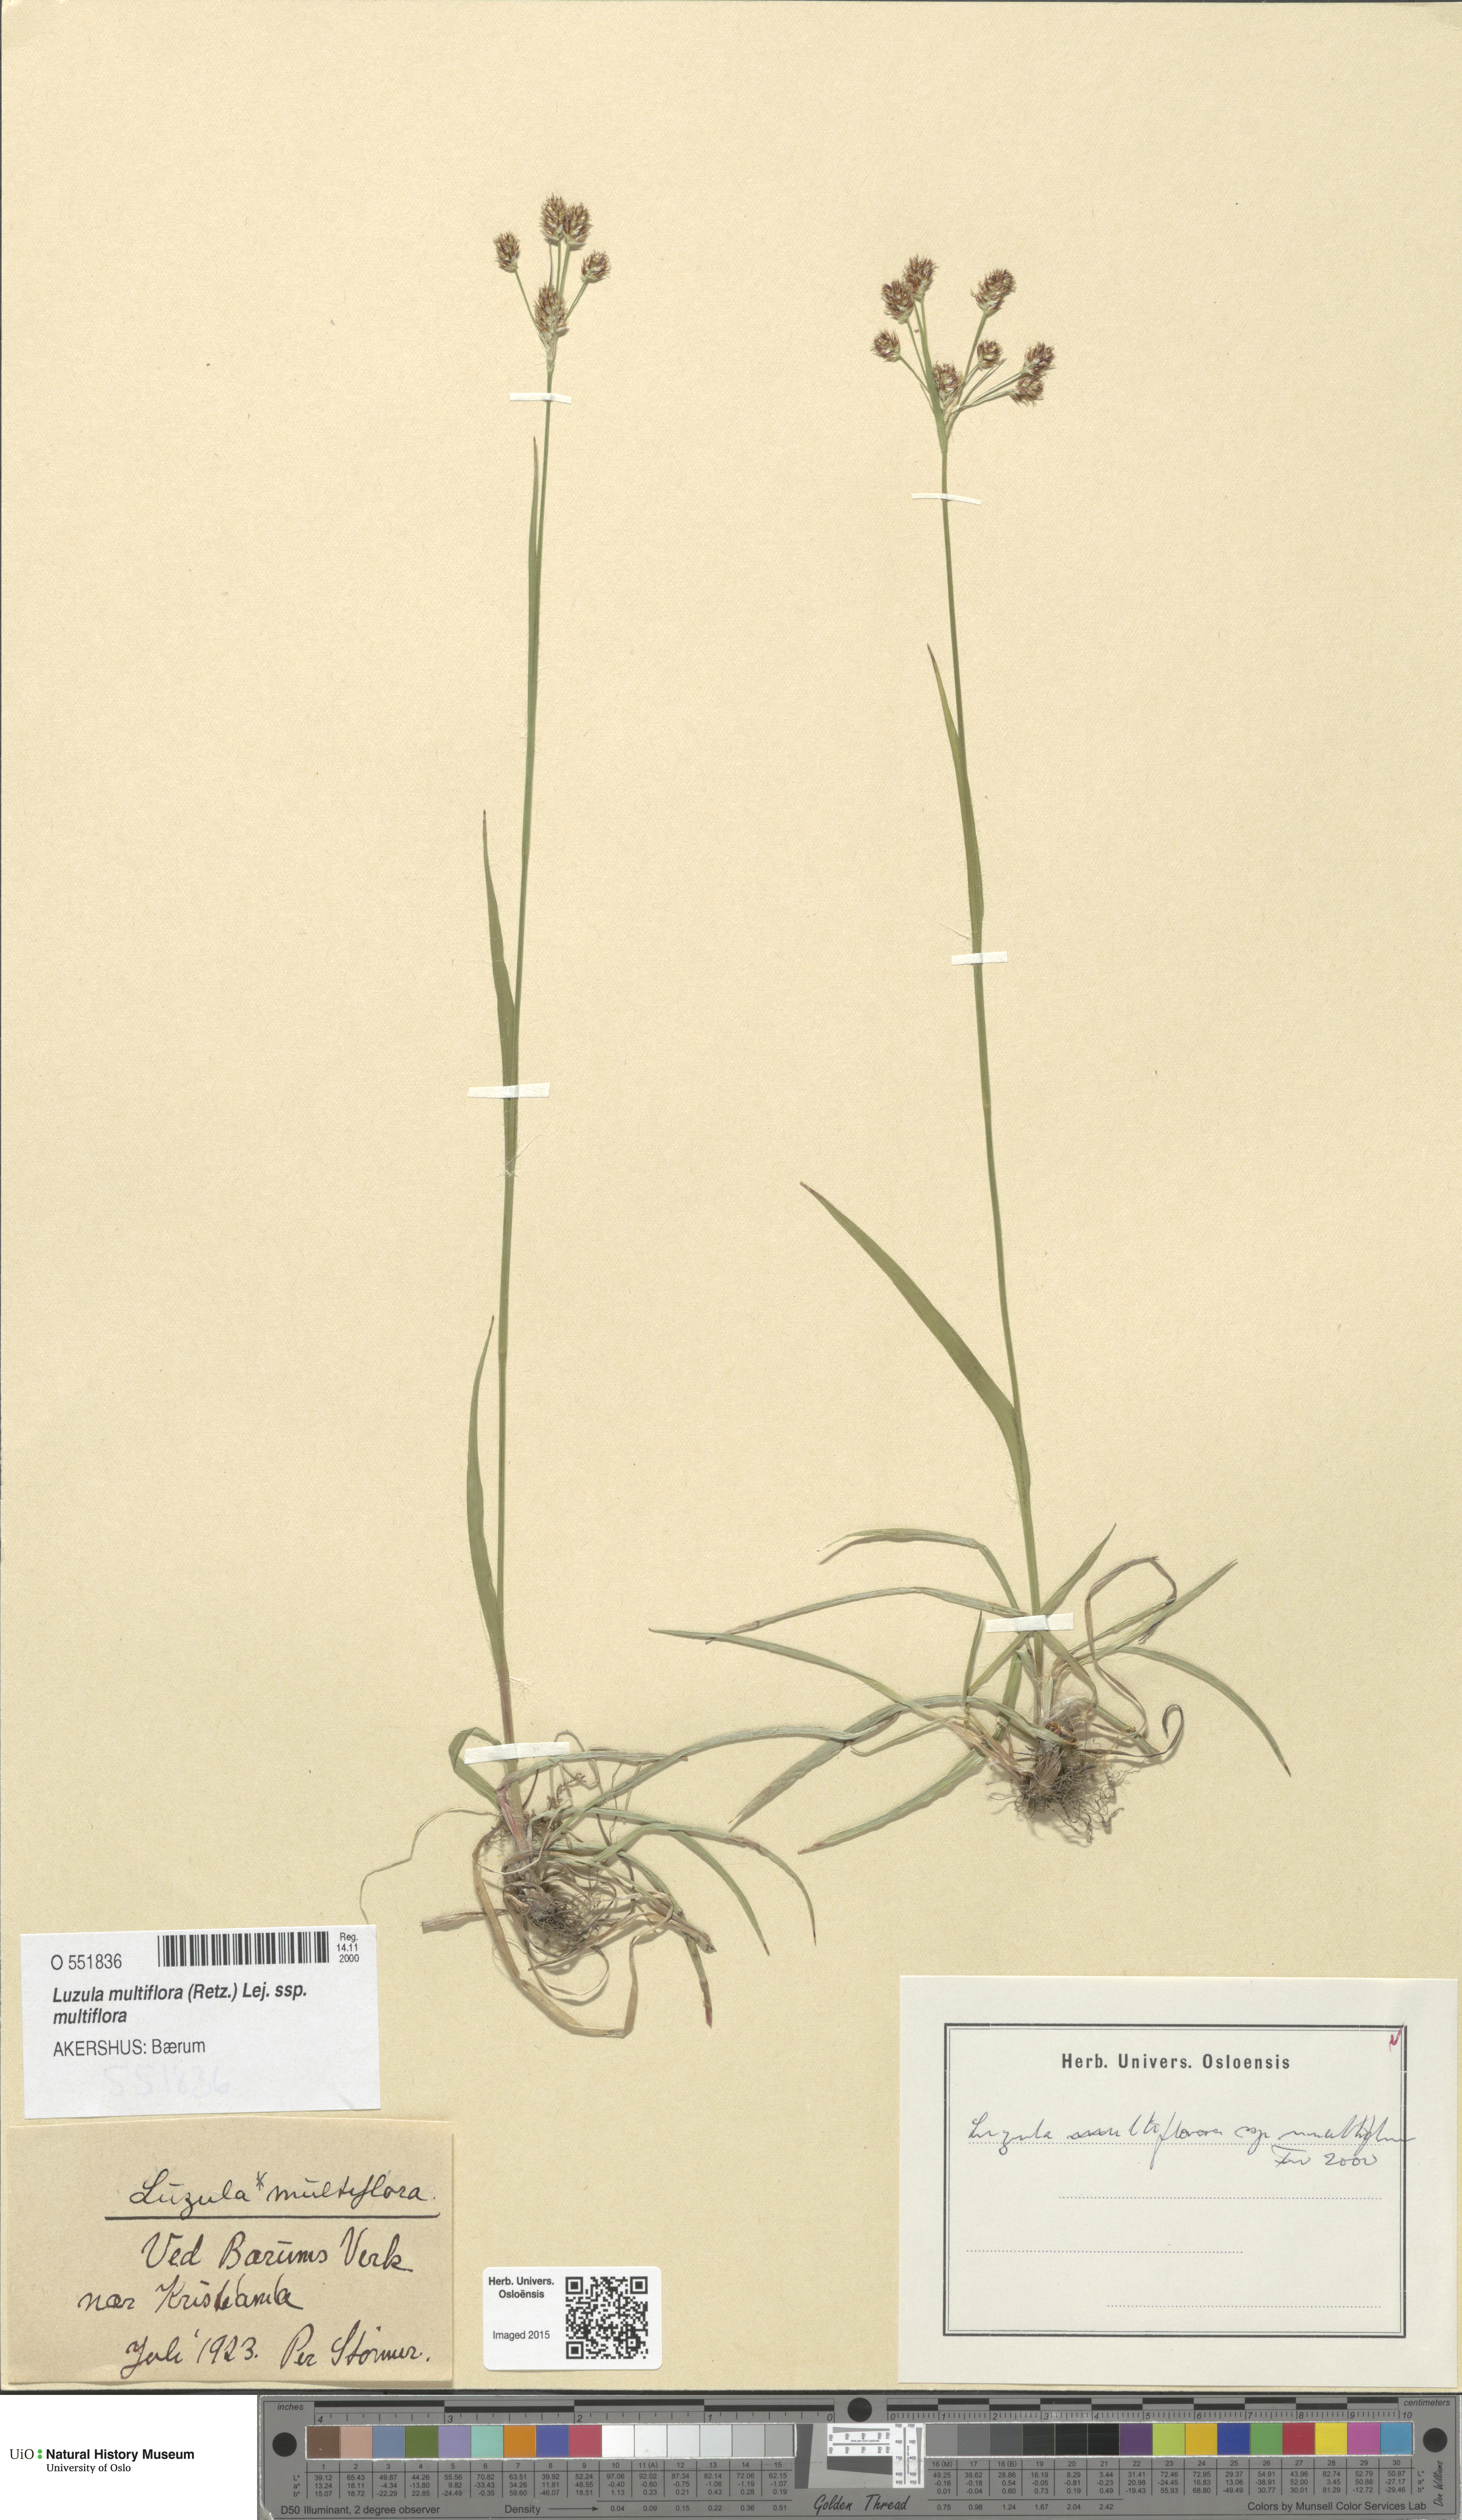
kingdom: Plantae
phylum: Tracheophyta
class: Liliopsida
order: Poales
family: Juncaceae
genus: Luzula
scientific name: Luzula multiflora
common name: Heath wood-rush
